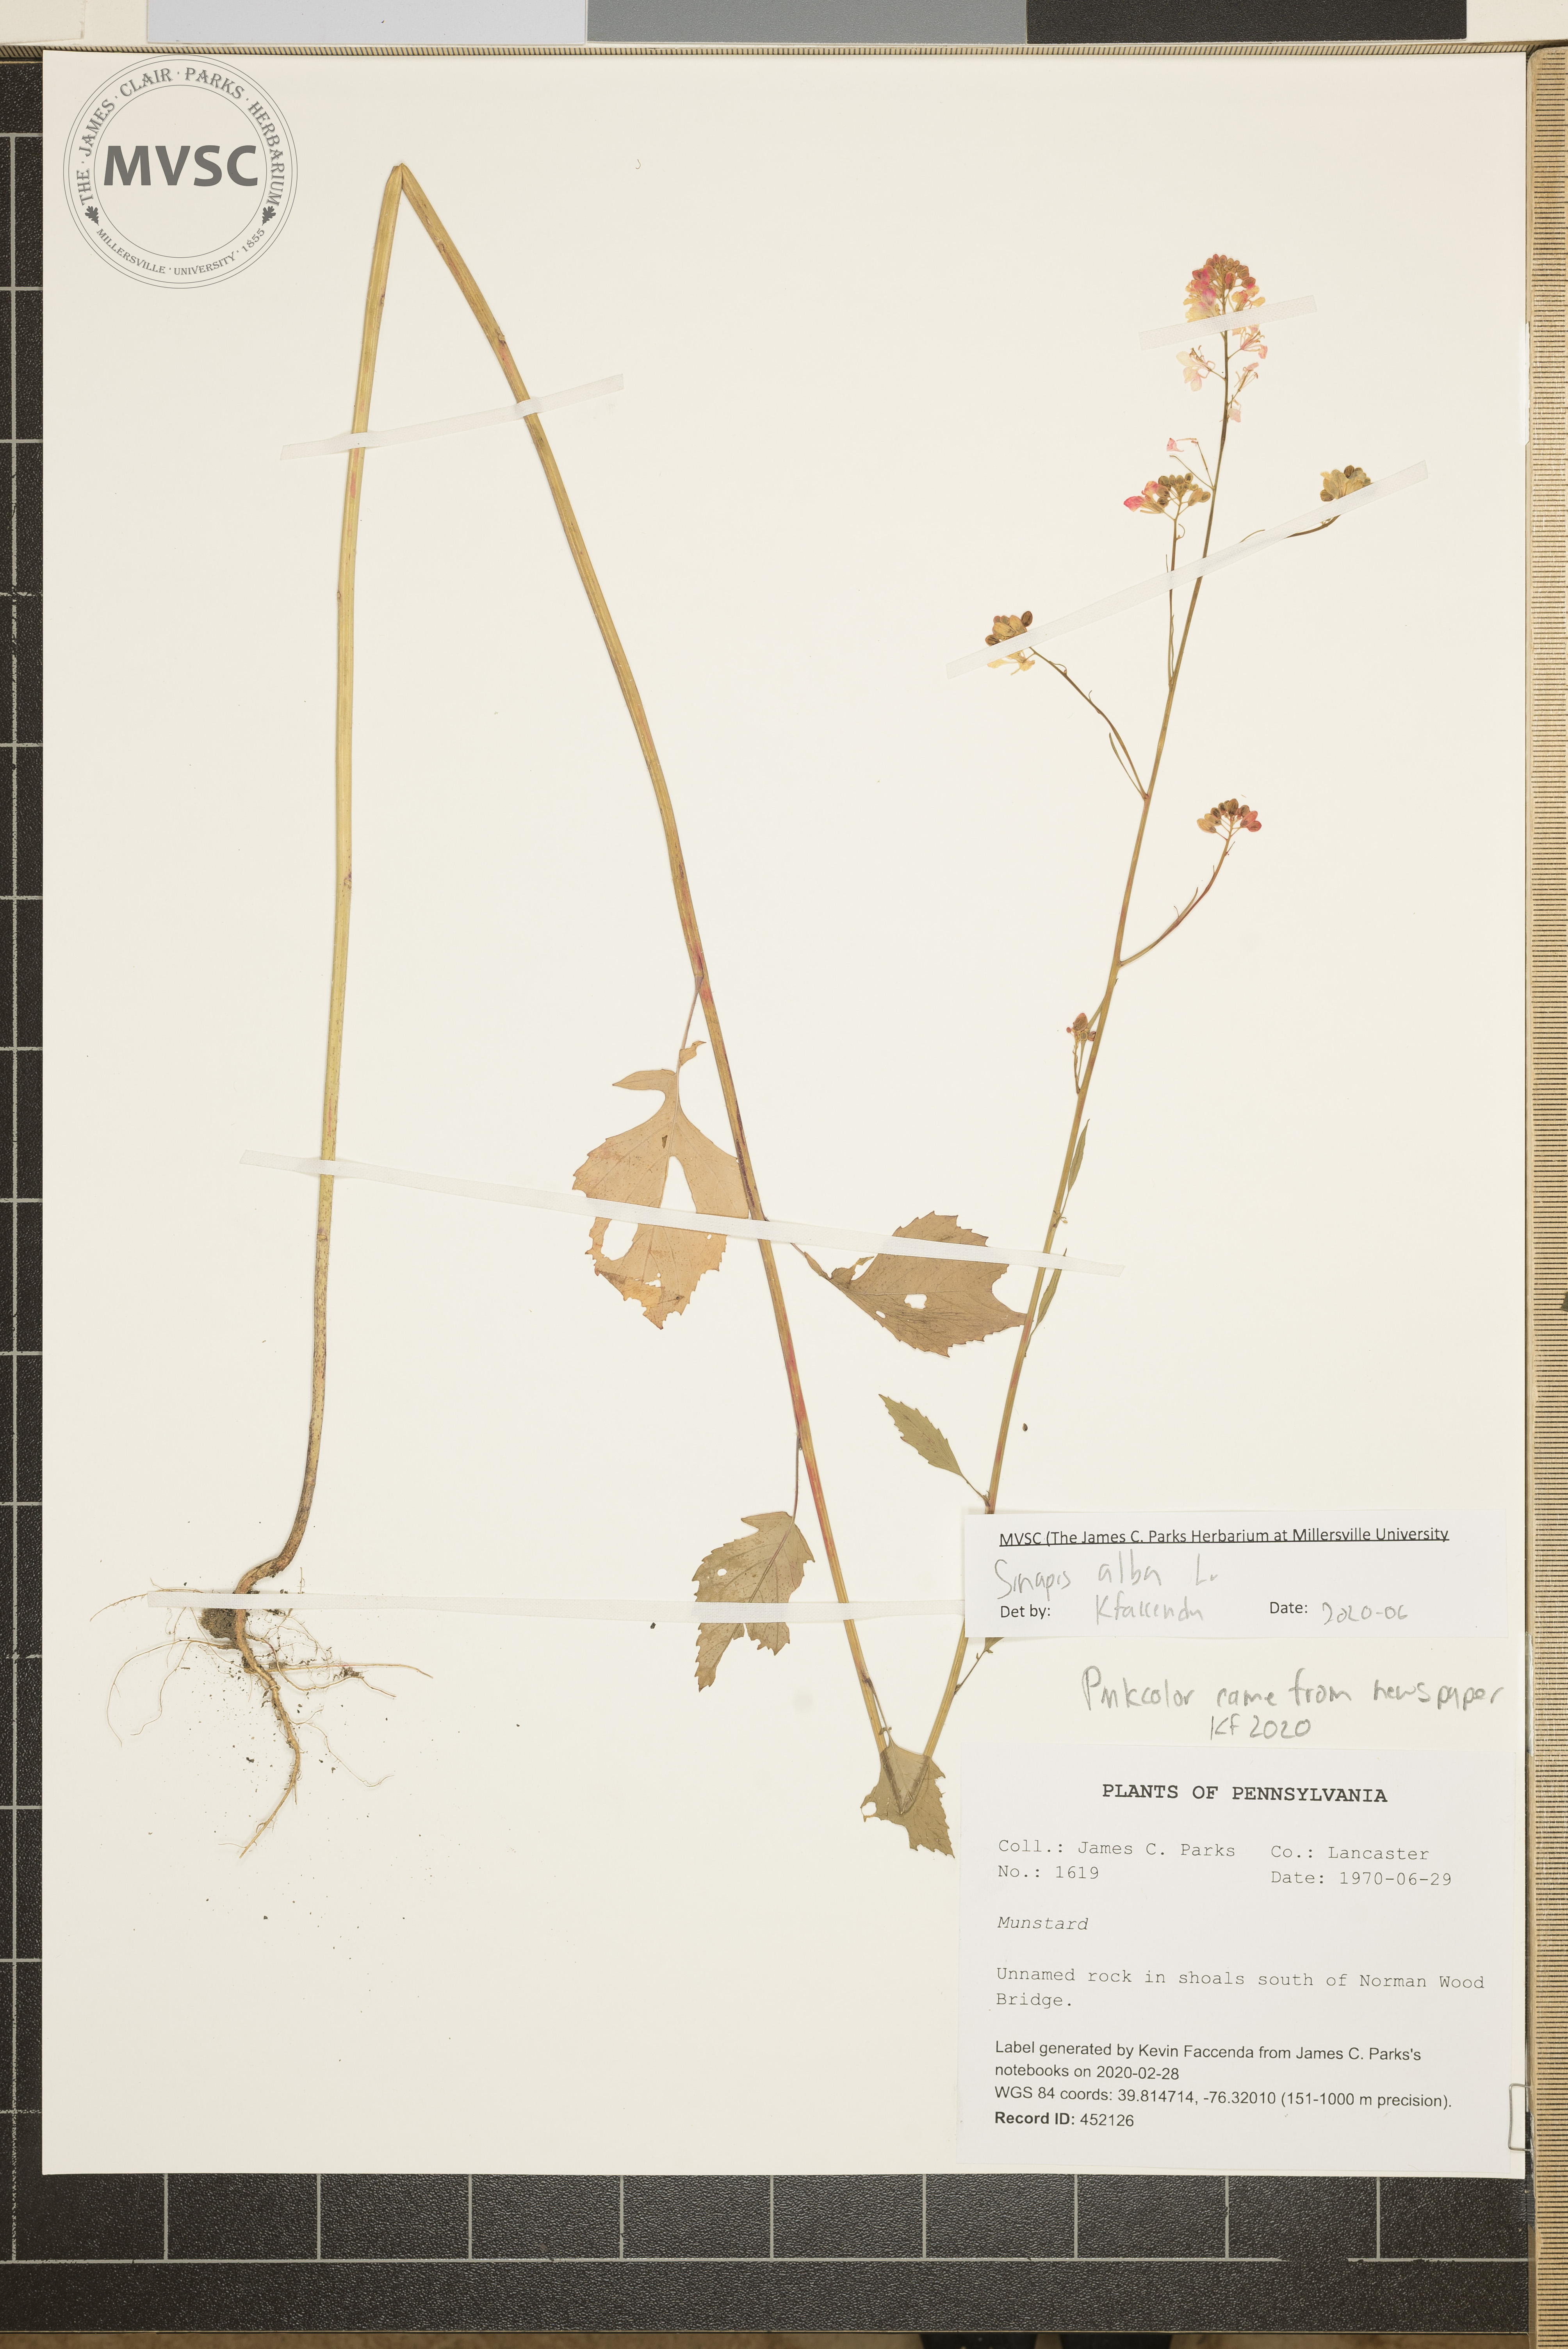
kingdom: Plantae
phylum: Tracheophyta
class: Magnoliopsida
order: Brassicales
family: Brassicaceae
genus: Sinapis
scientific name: Sinapis alba
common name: White mustard
